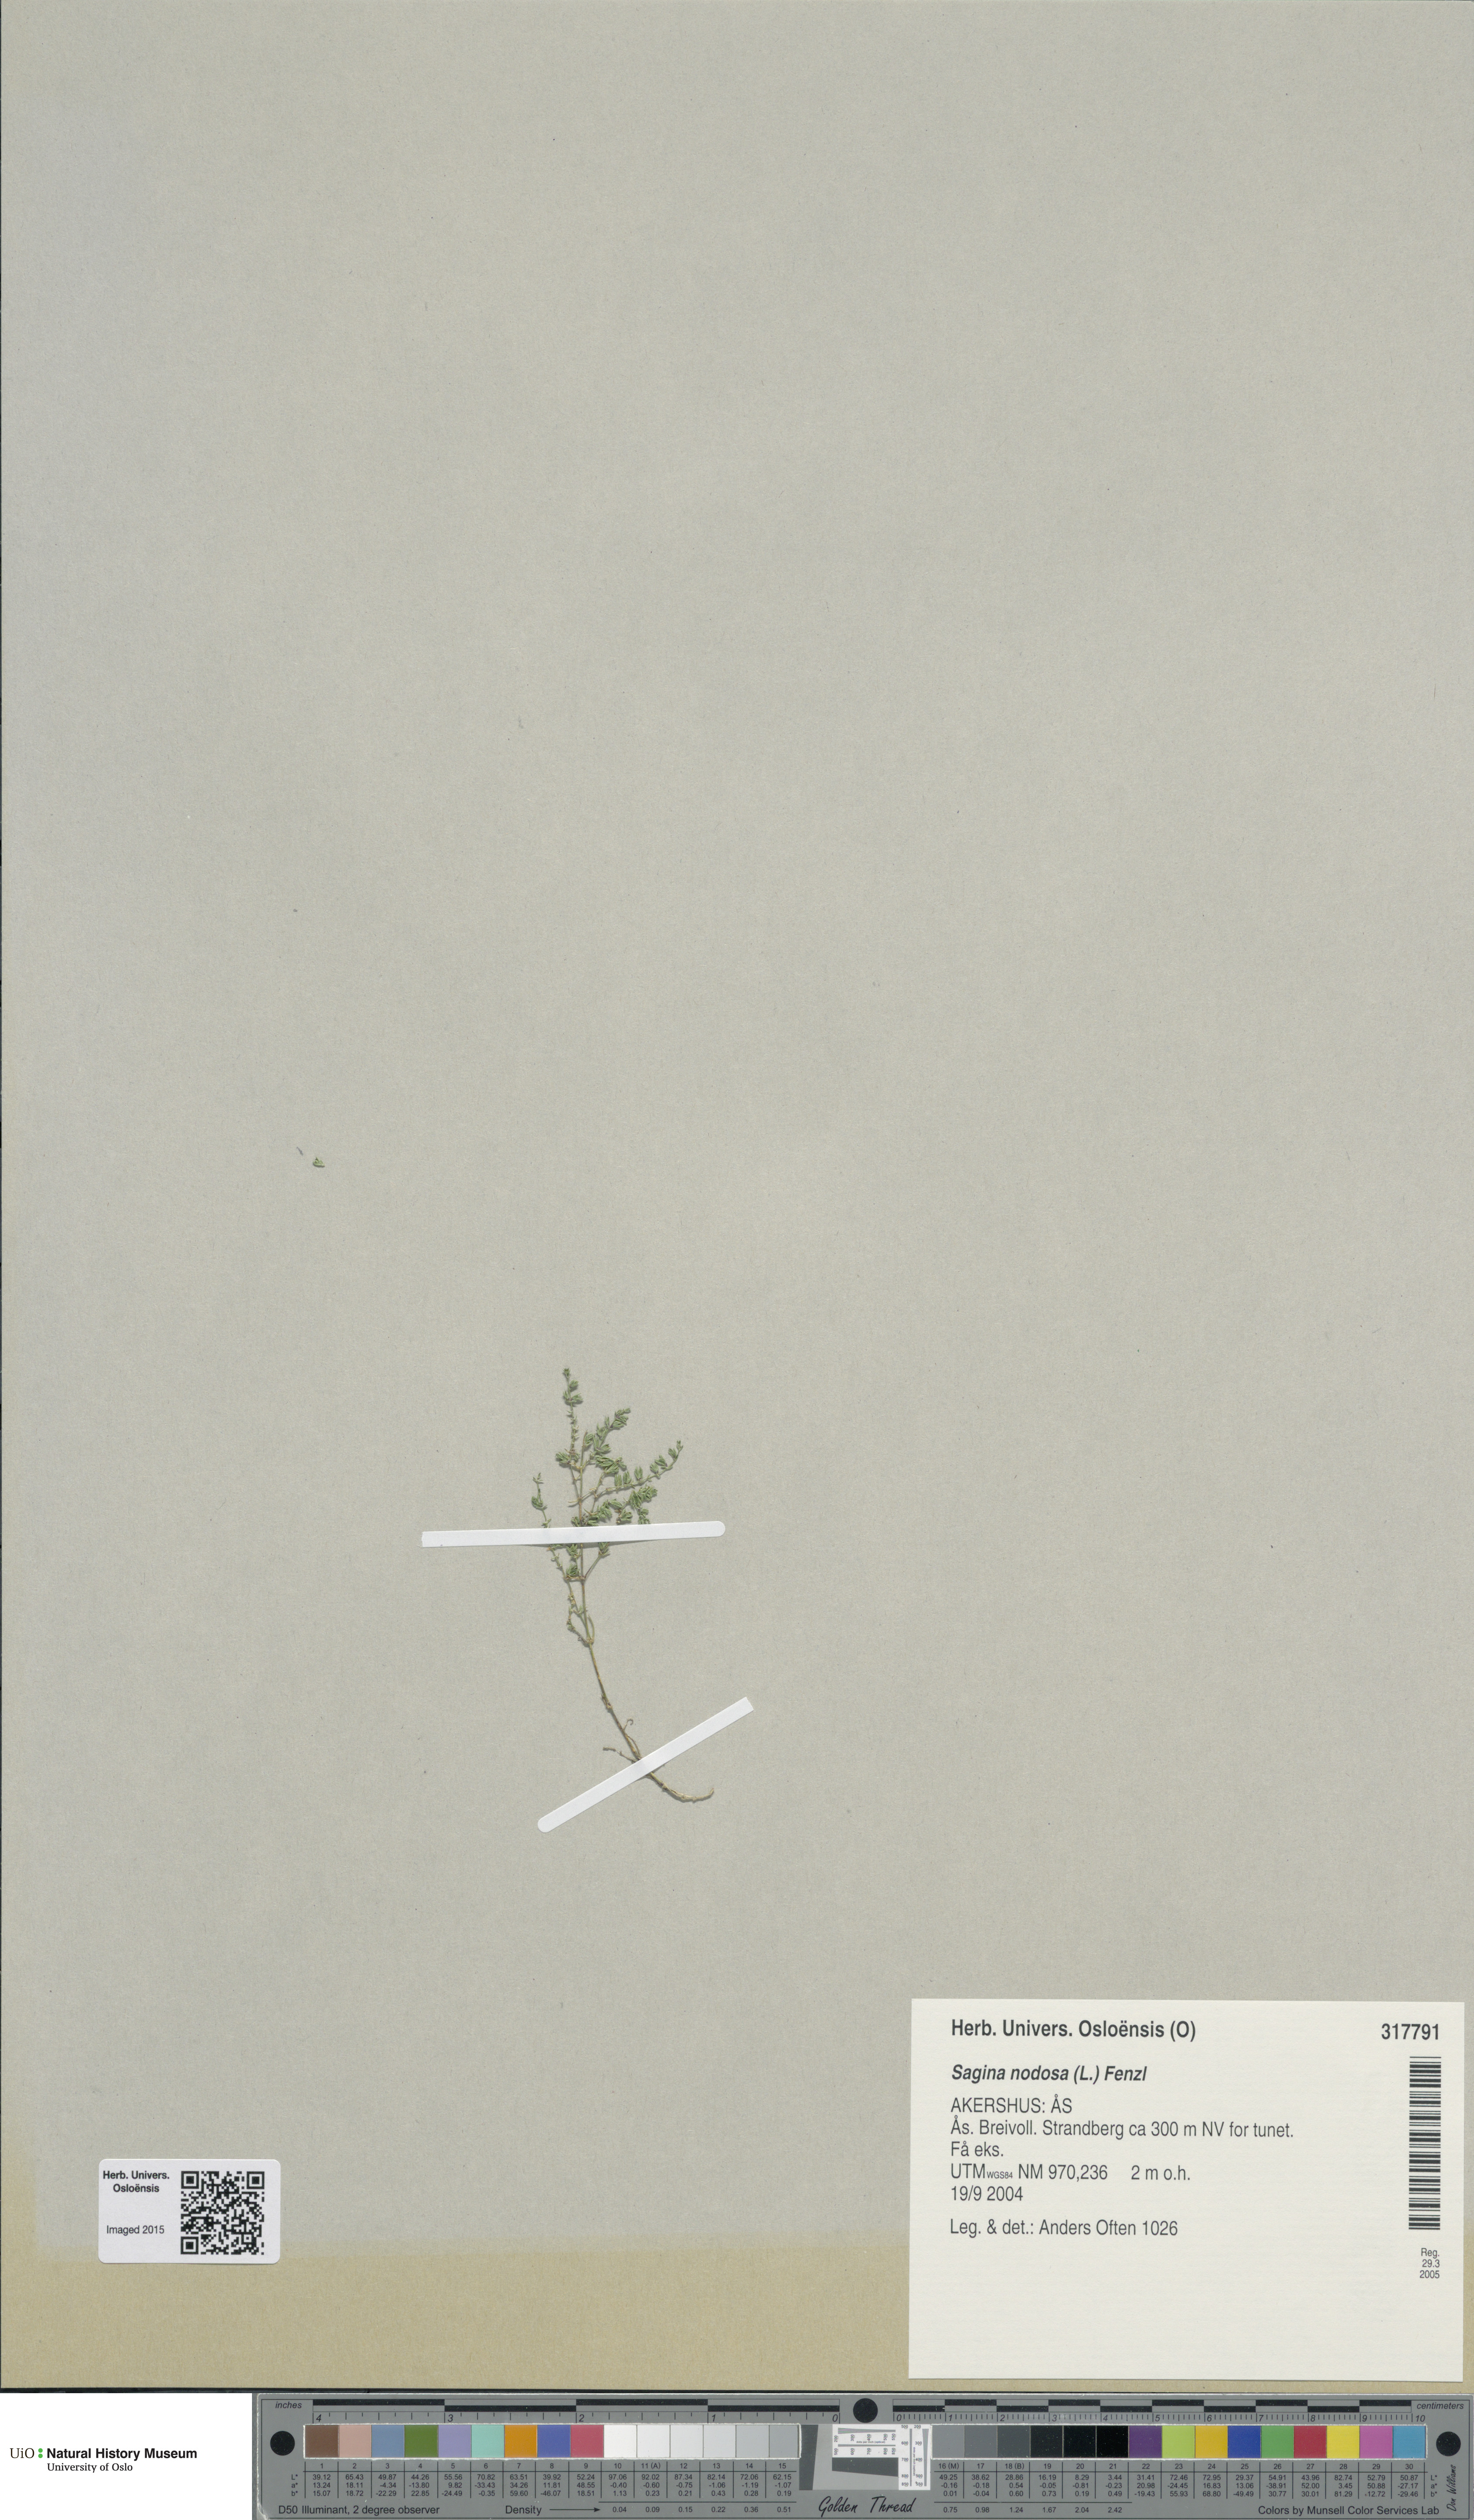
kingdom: Plantae
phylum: Tracheophyta
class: Magnoliopsida
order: Caryophyllales
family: Caryophyllaceae
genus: Sagina
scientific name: Sagina nodosa
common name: Knotted pearlwort
